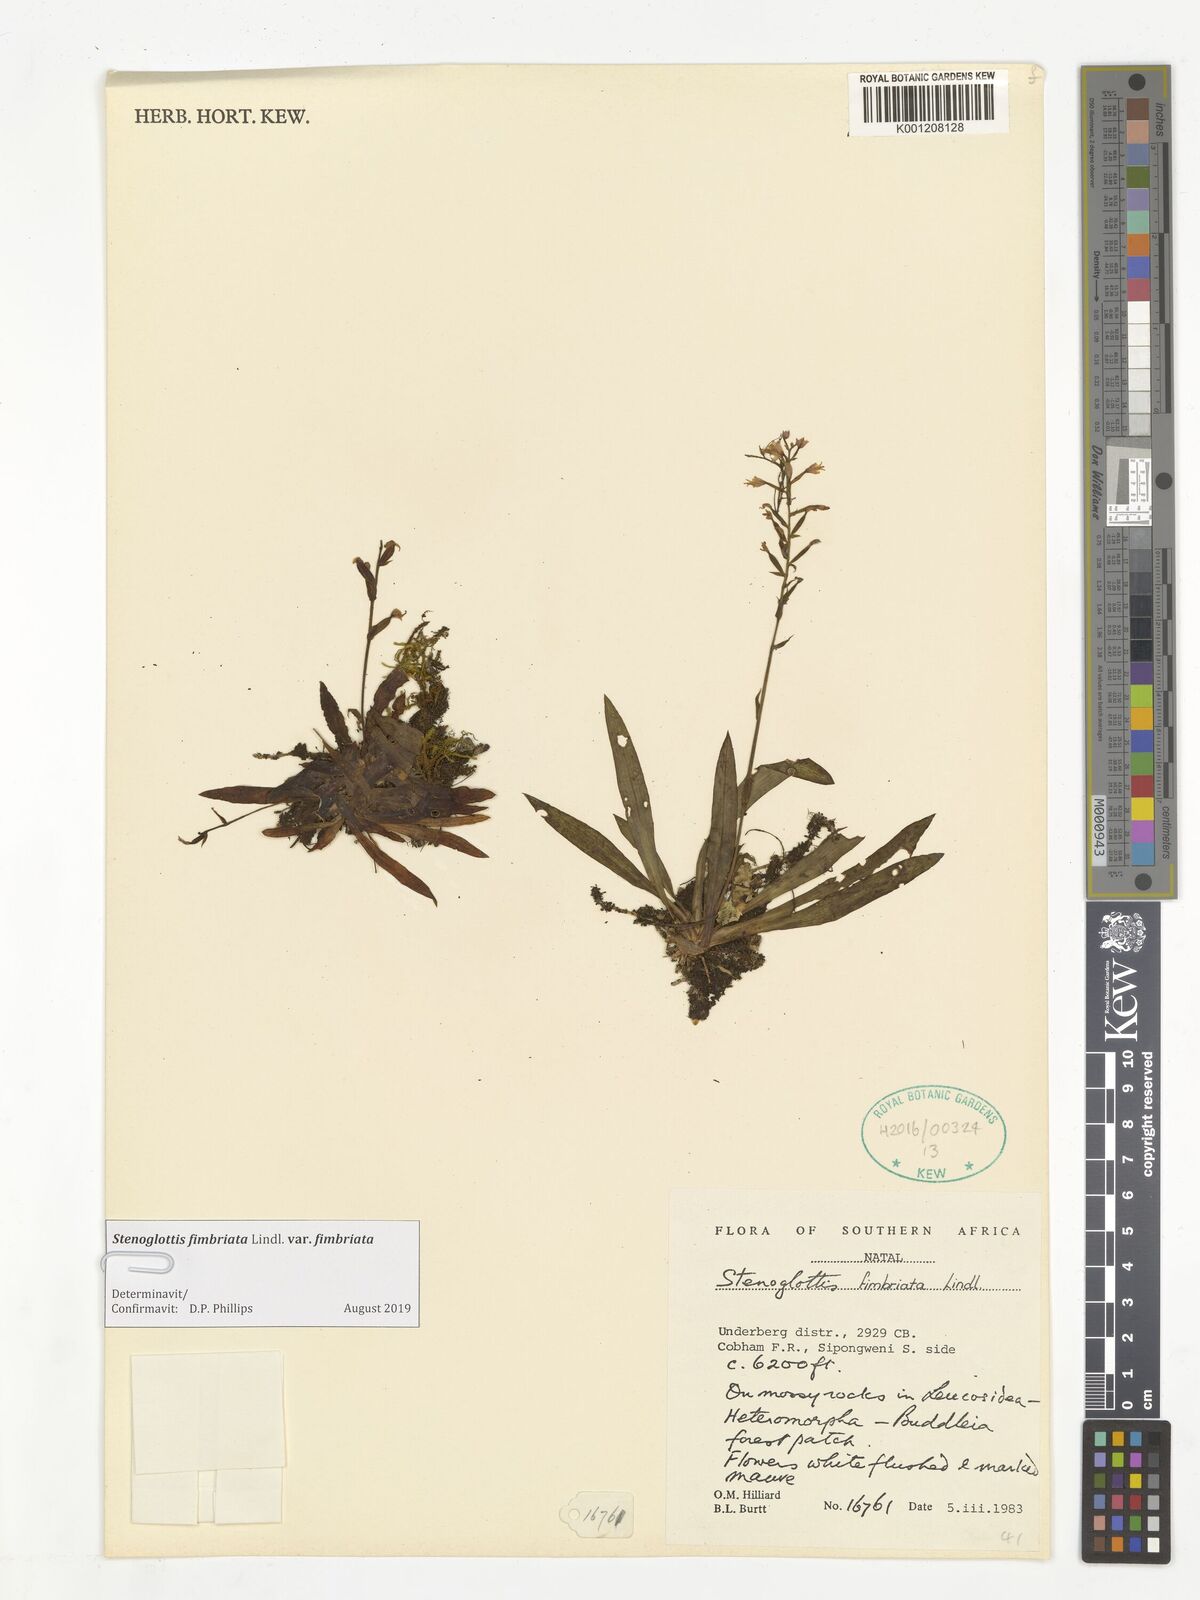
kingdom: Plantae
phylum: Tracheophyta
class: Liliopsida
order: Asparagales
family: Orchidaceae
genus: Stenoglottis
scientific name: Stenoglottis fimbriata
